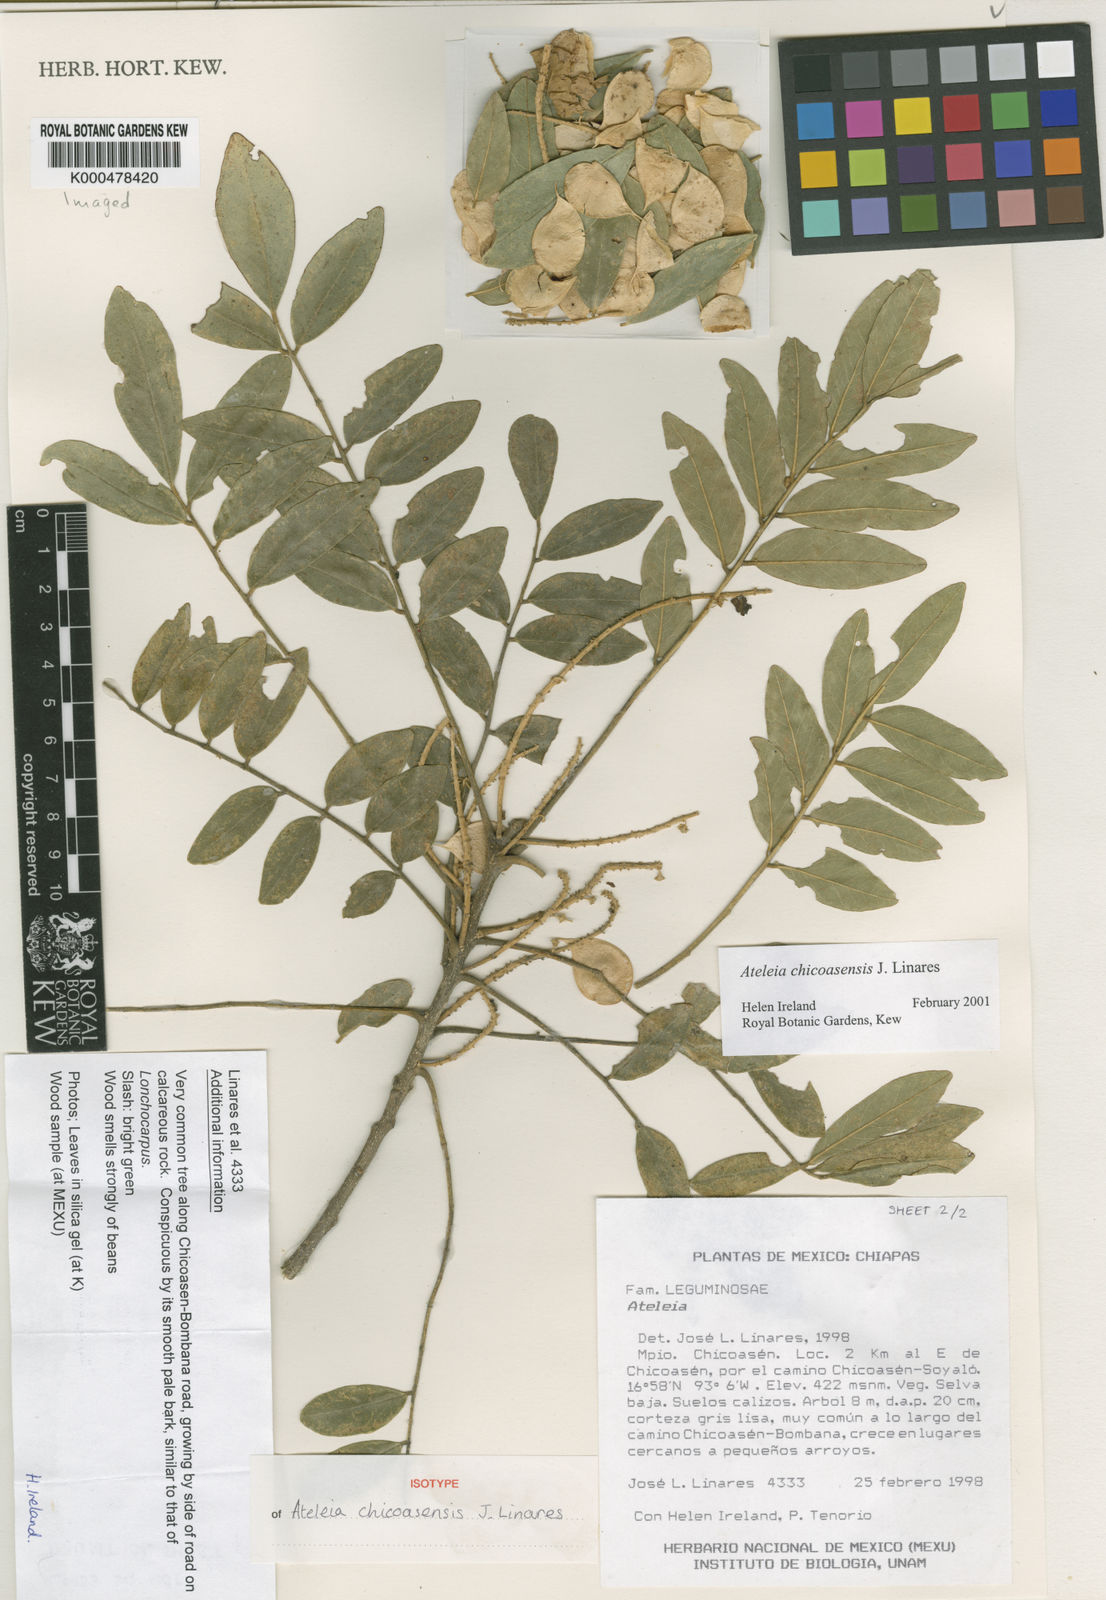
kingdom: Plantae
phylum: Tracheophyta
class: Magnoliopsida
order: Fabales
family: Fabaceae
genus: Ateleia
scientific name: Ateleia chicoasensis
